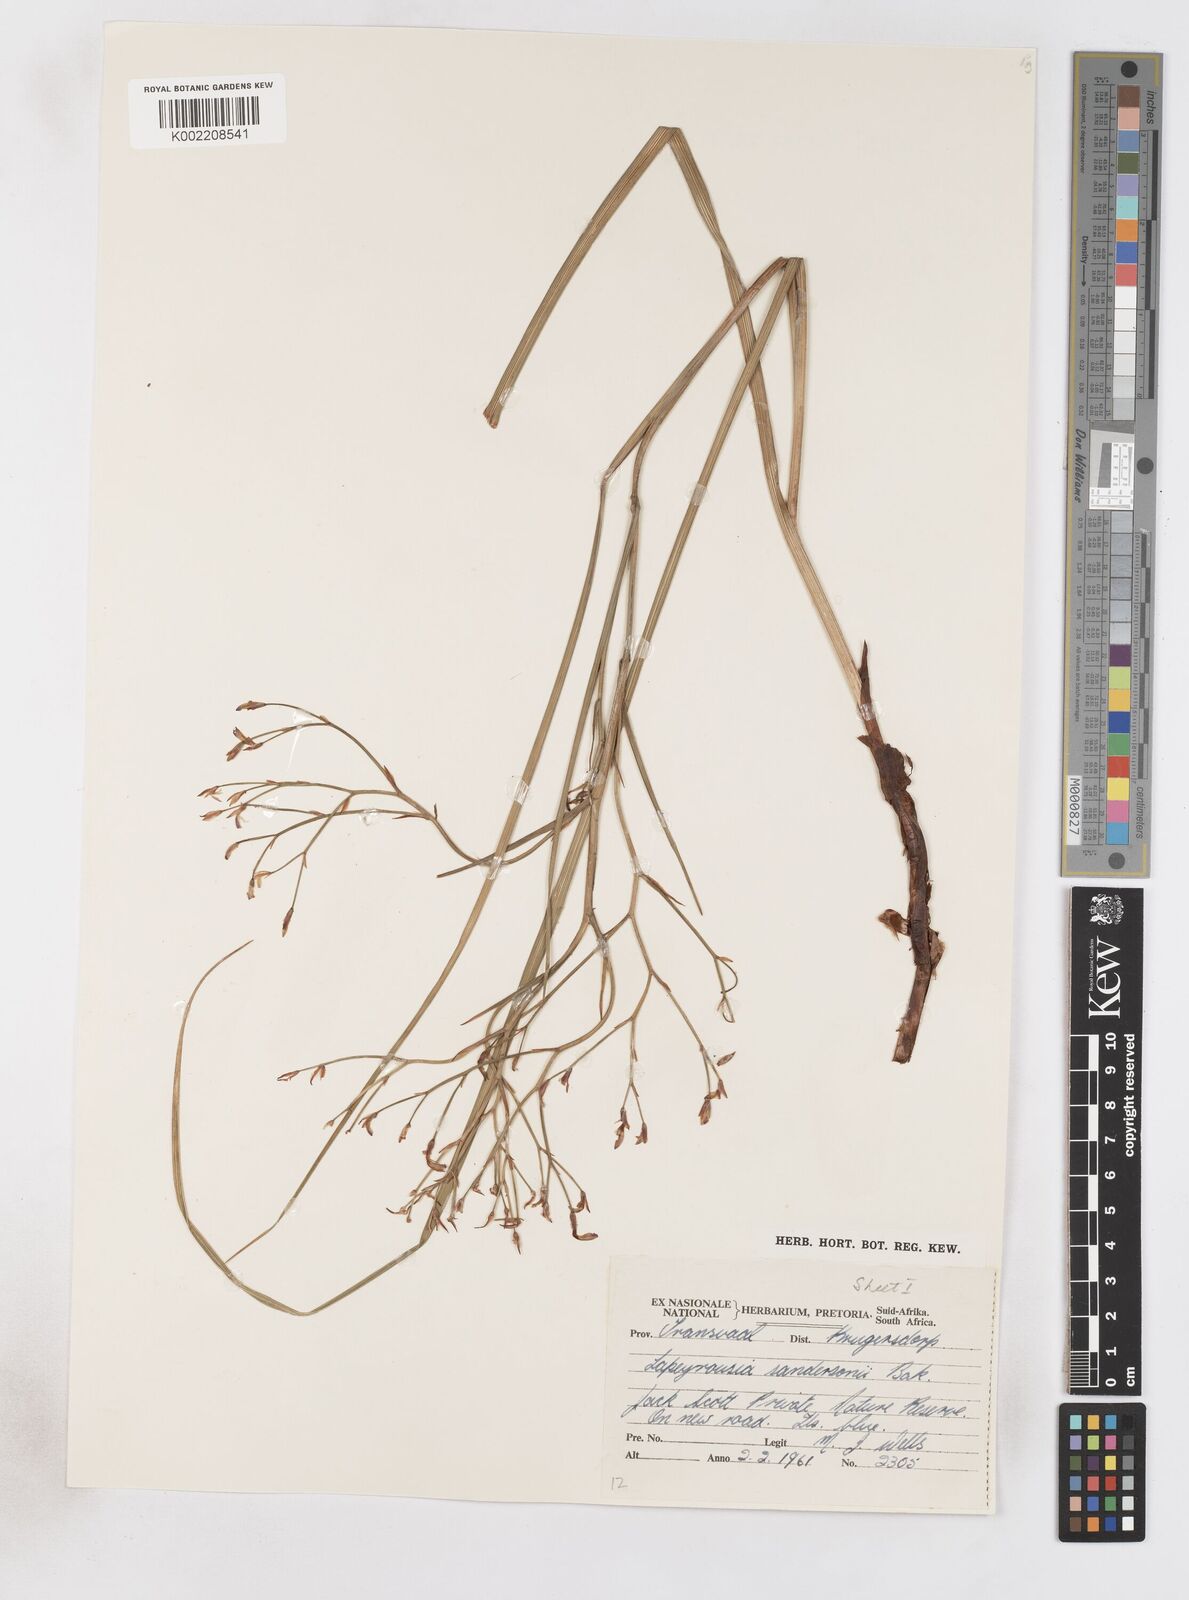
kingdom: Plantae
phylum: Tracheophyta
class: Liliopsida
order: Asparagales
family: Iridaceae
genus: Afrosolen
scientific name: Afrosolen sandersonii
